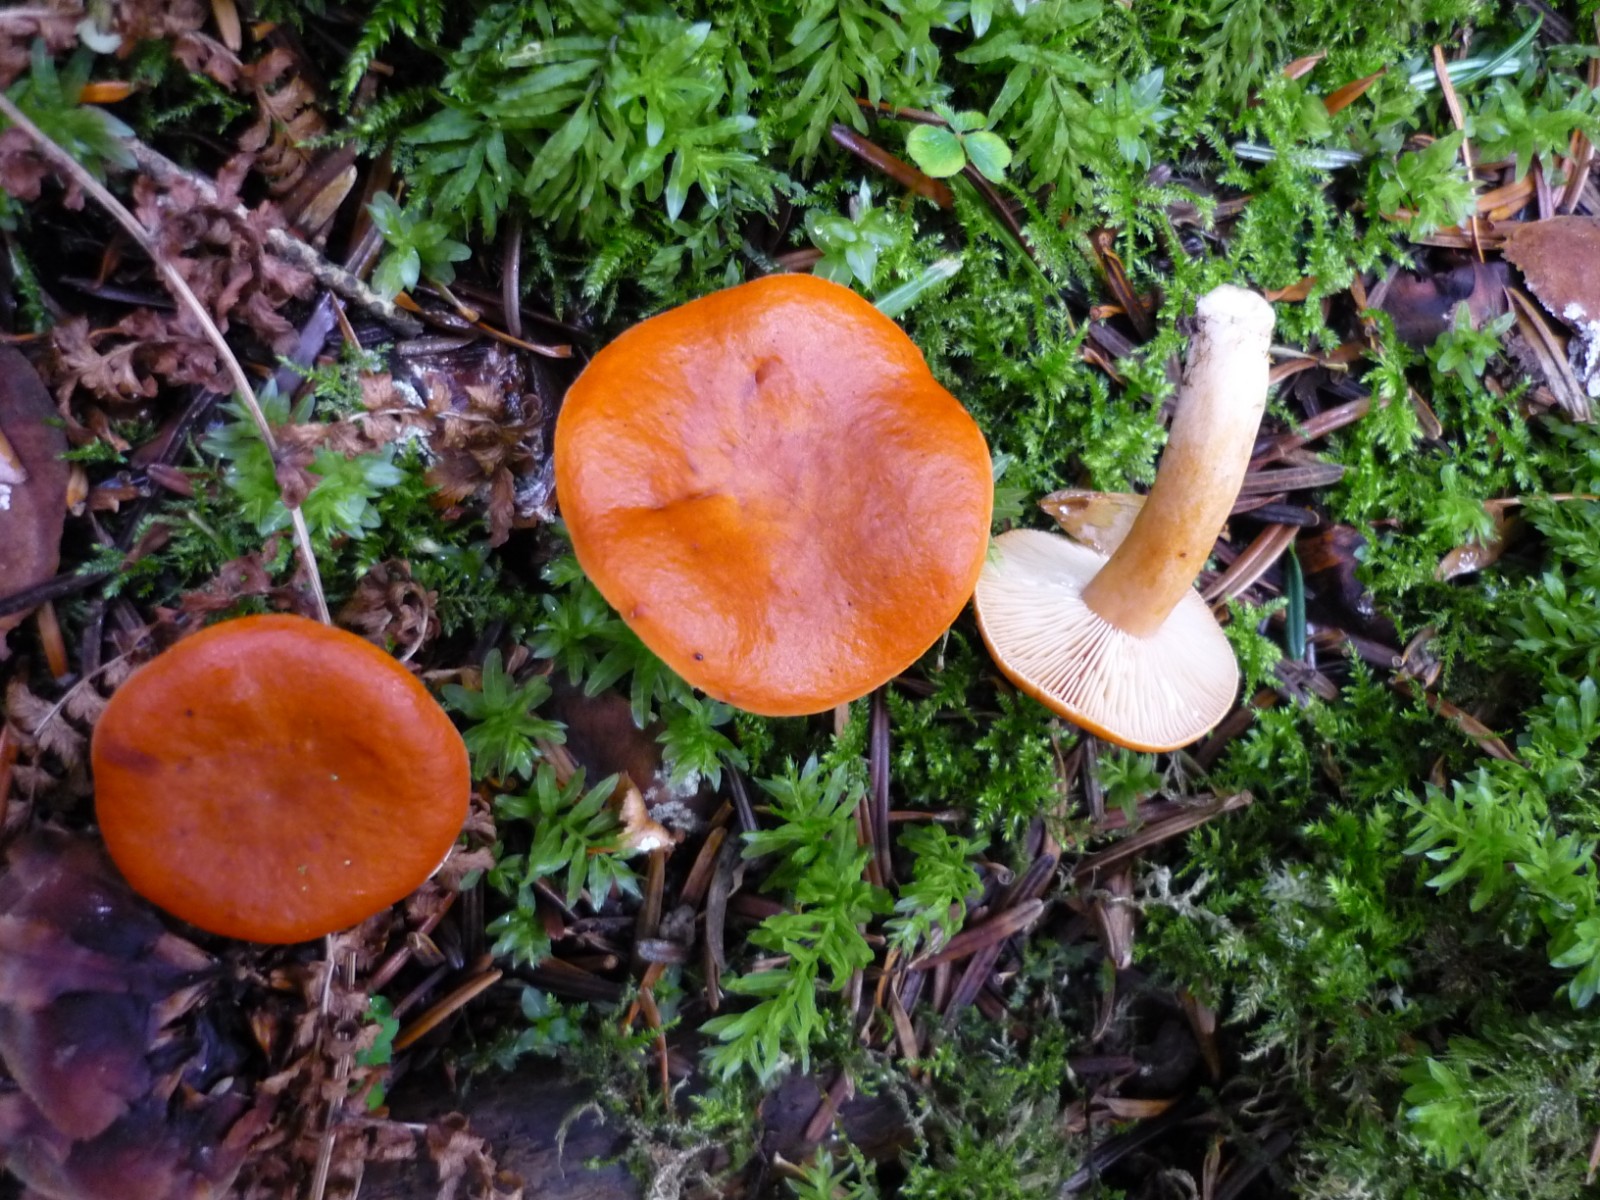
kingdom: Fungi
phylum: Basidiomycota
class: Agaricomycetes
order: Russulales
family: Russulaceae
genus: Lactarius
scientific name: Lactarius aurantiacus
